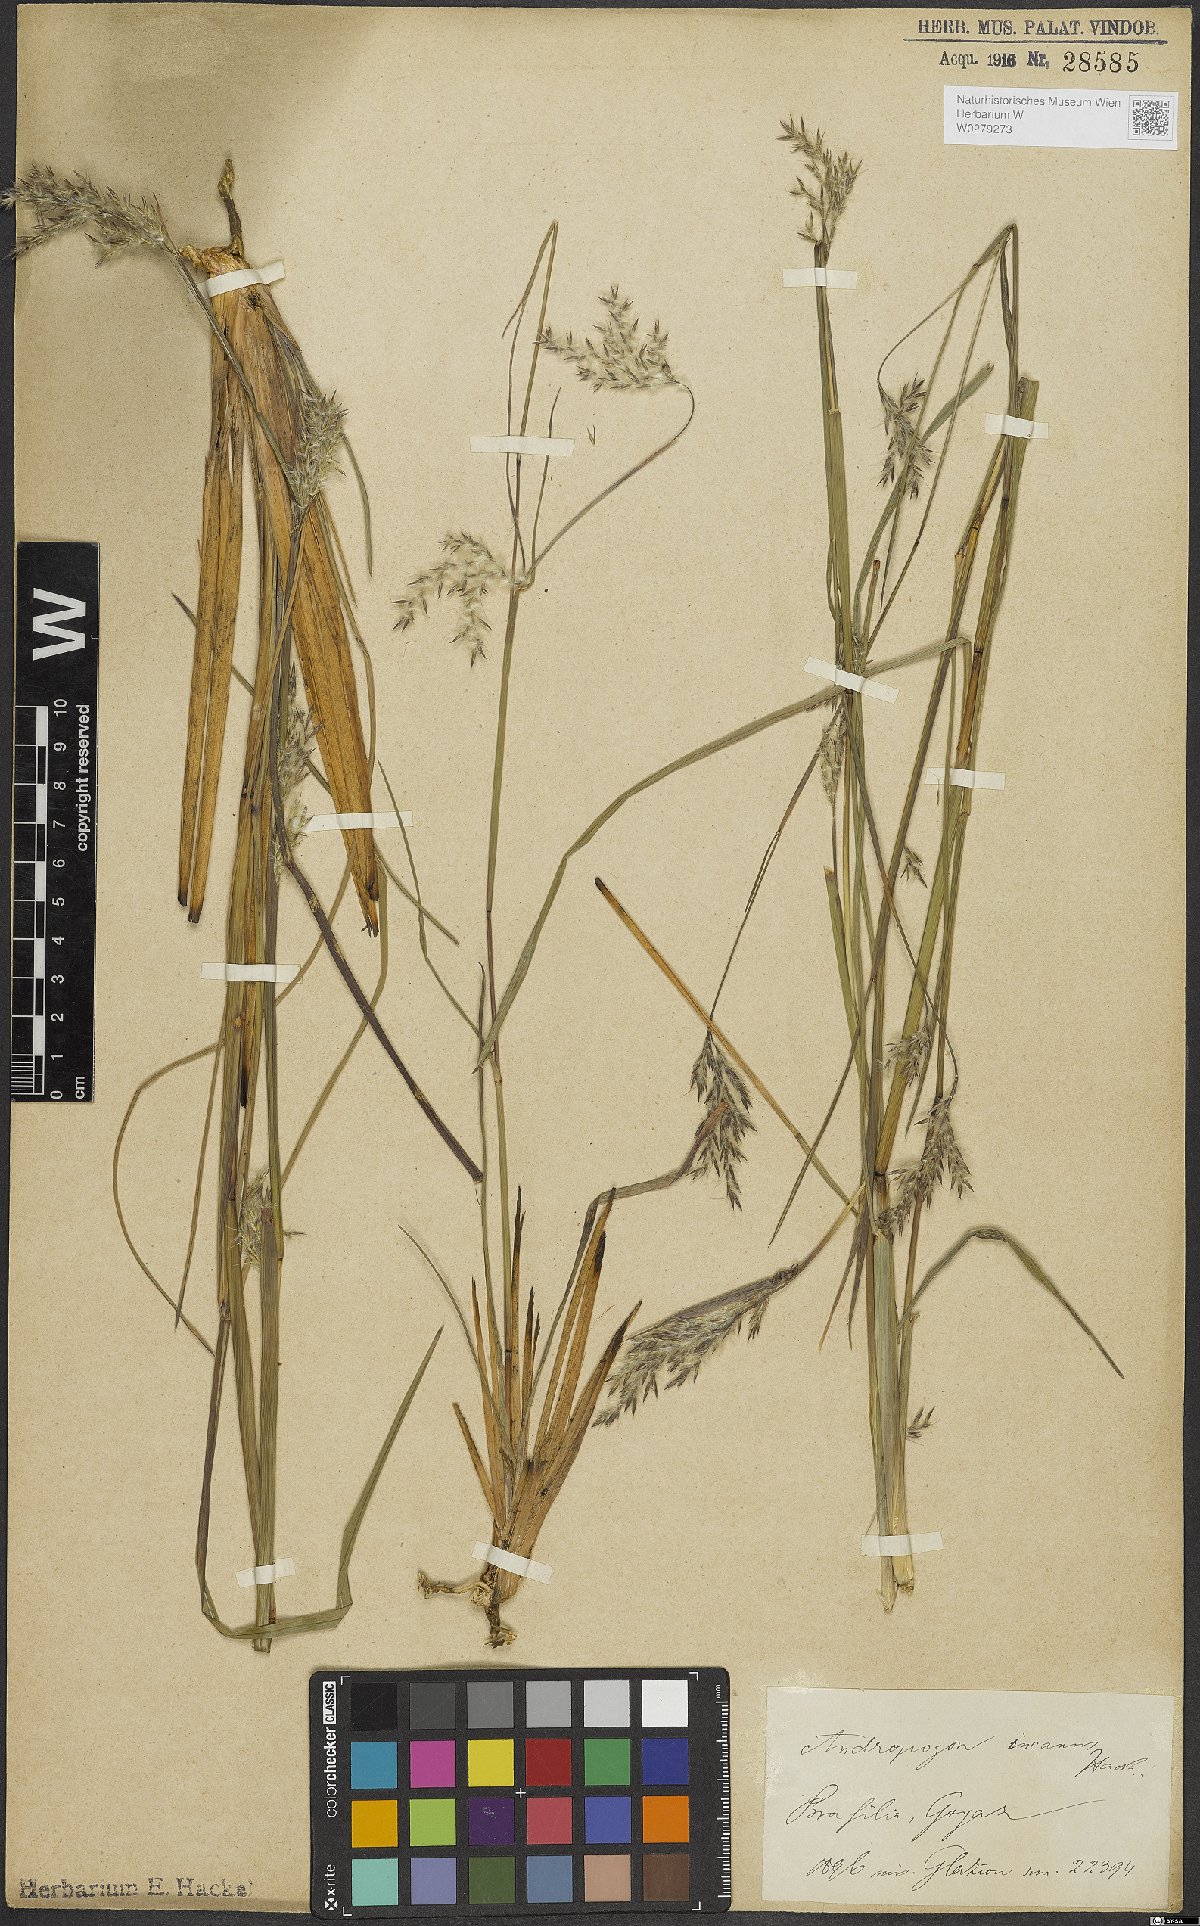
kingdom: Plantae
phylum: Tracheophyta
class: Liliopsida
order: Poales
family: Poaceae
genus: Andropogon
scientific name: Andropogon lateralis
